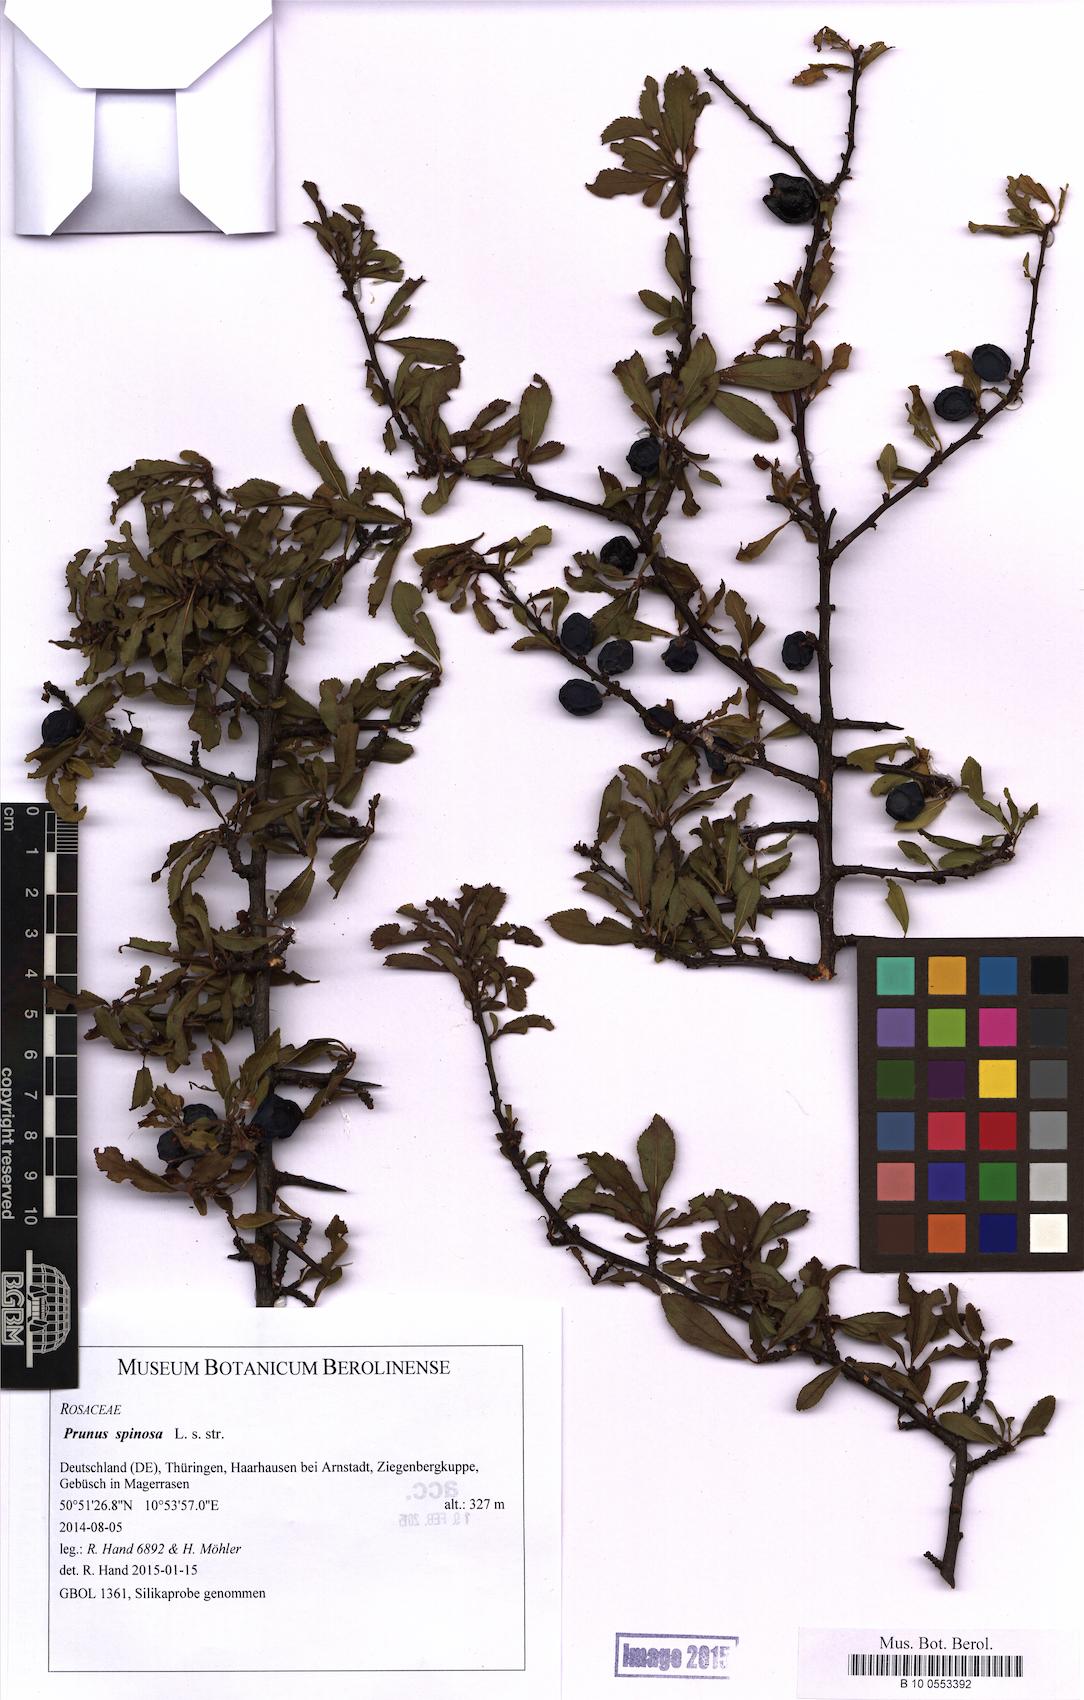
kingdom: Plantae
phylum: Tracheophyta
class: Magnoliopsida
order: Rosales
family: Rosaceae
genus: Prunus
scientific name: Prunus spinosa
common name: Blackthorn
